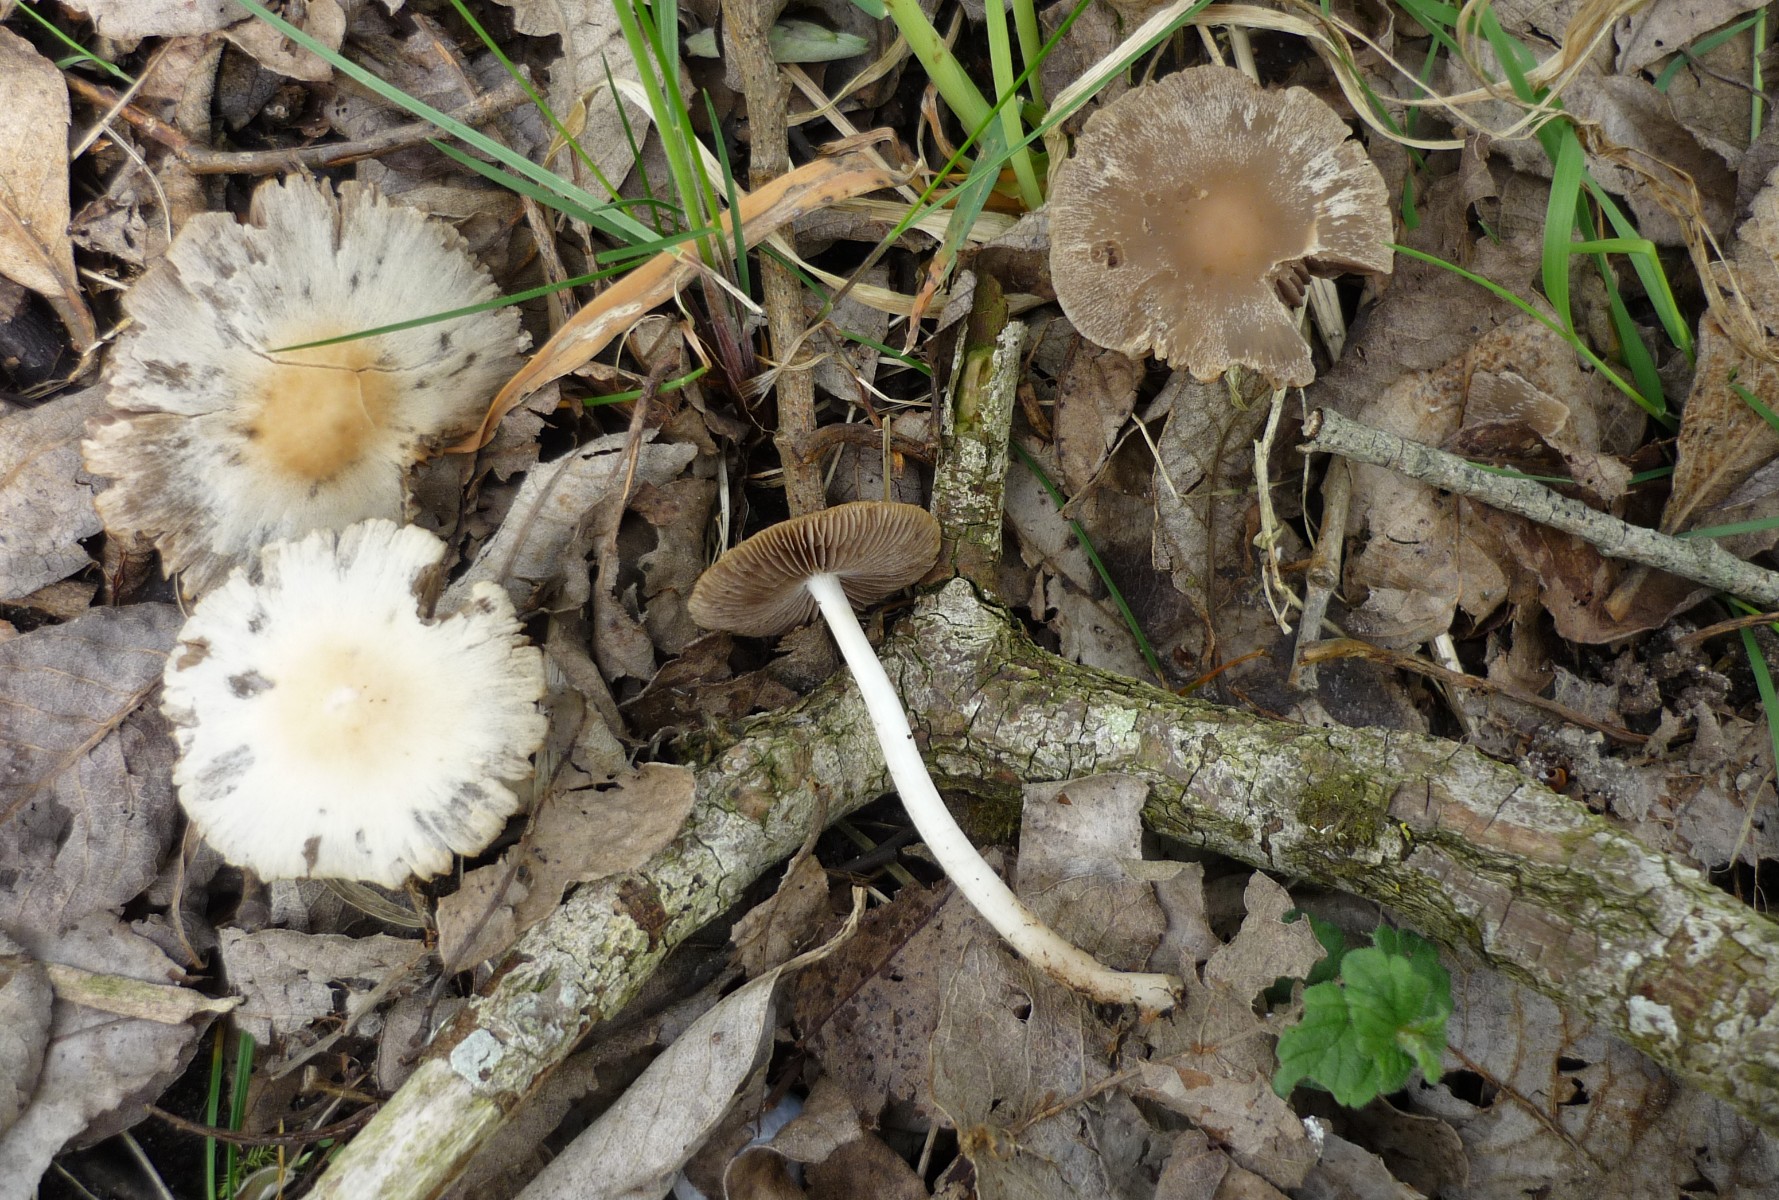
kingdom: Fungi
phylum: Basidiomycota
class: Agaricomycetes
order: Agaricales
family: Psathyrellaceae
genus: Psathyrella
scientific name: Psathyrella spadiceogrisea
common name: gråbrun mørkhat
